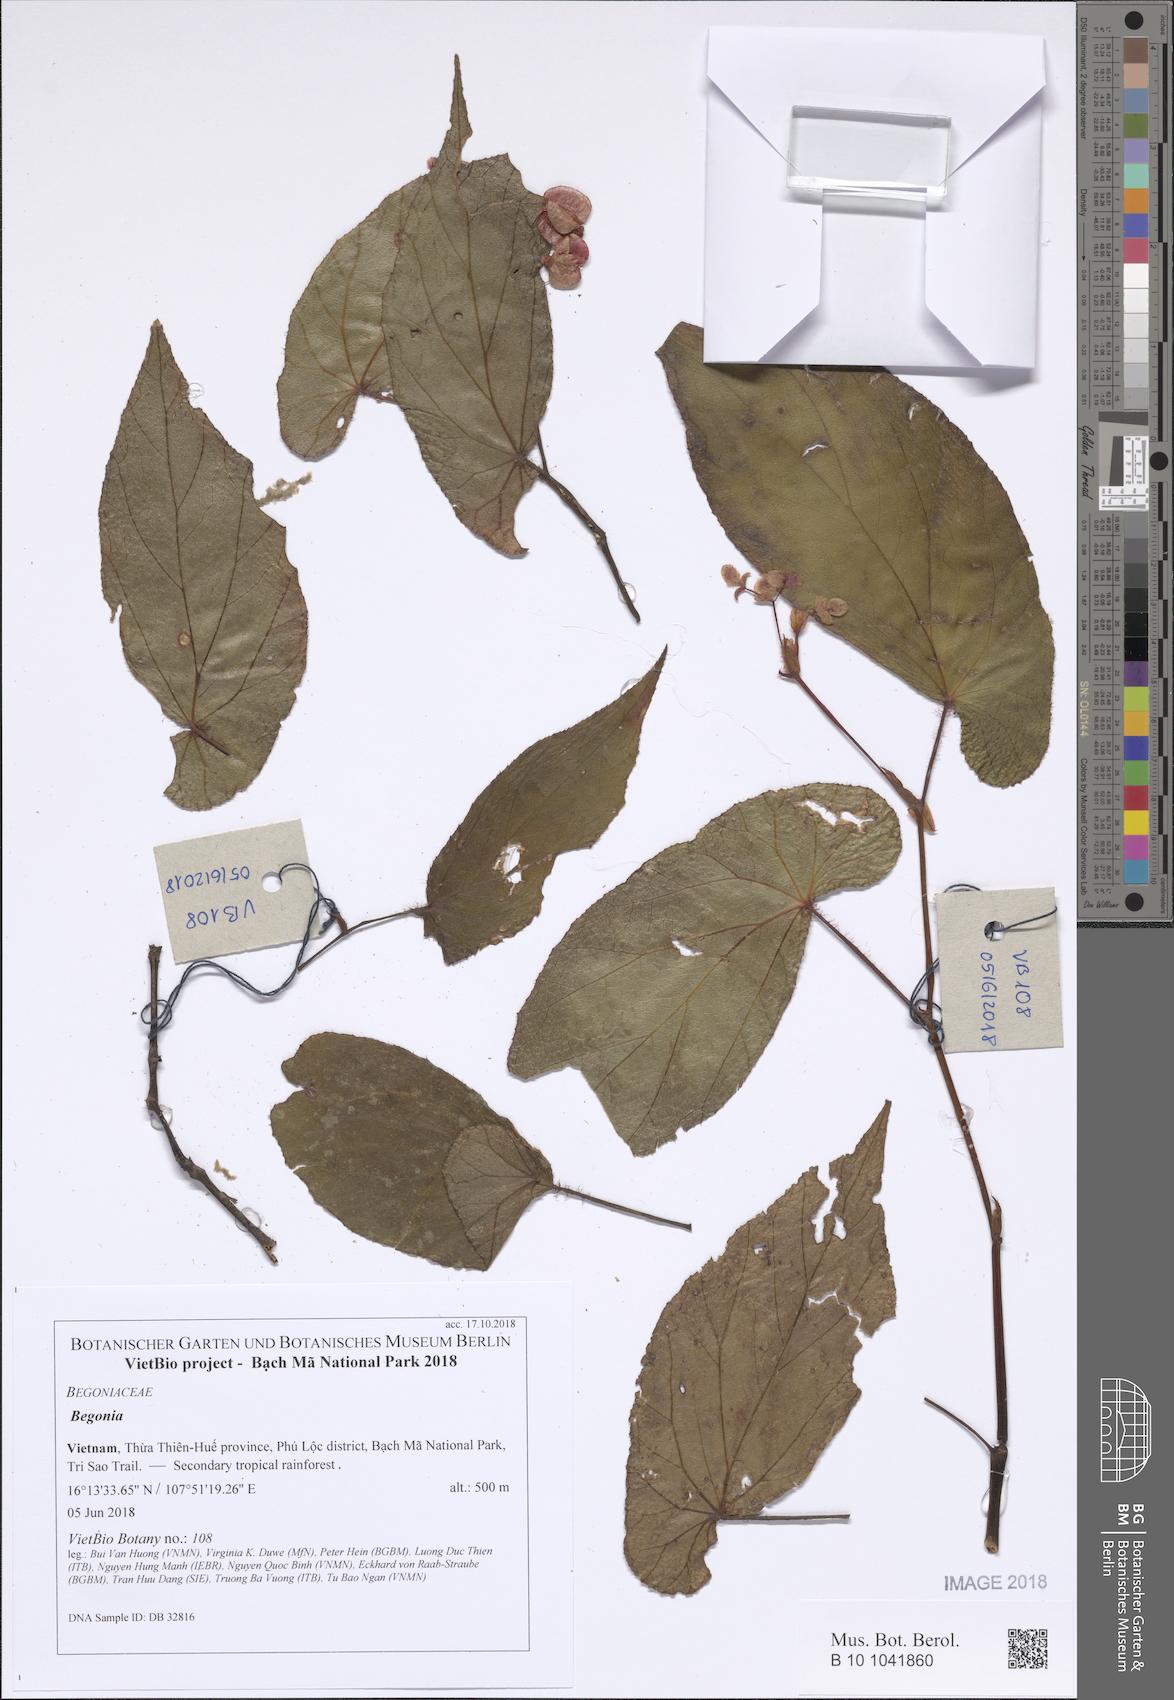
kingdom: Plantae
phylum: Tracheophyta
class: Magnoliopsida
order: Cucurbitales
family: Begoniaceae
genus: Begonia
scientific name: Begonia
